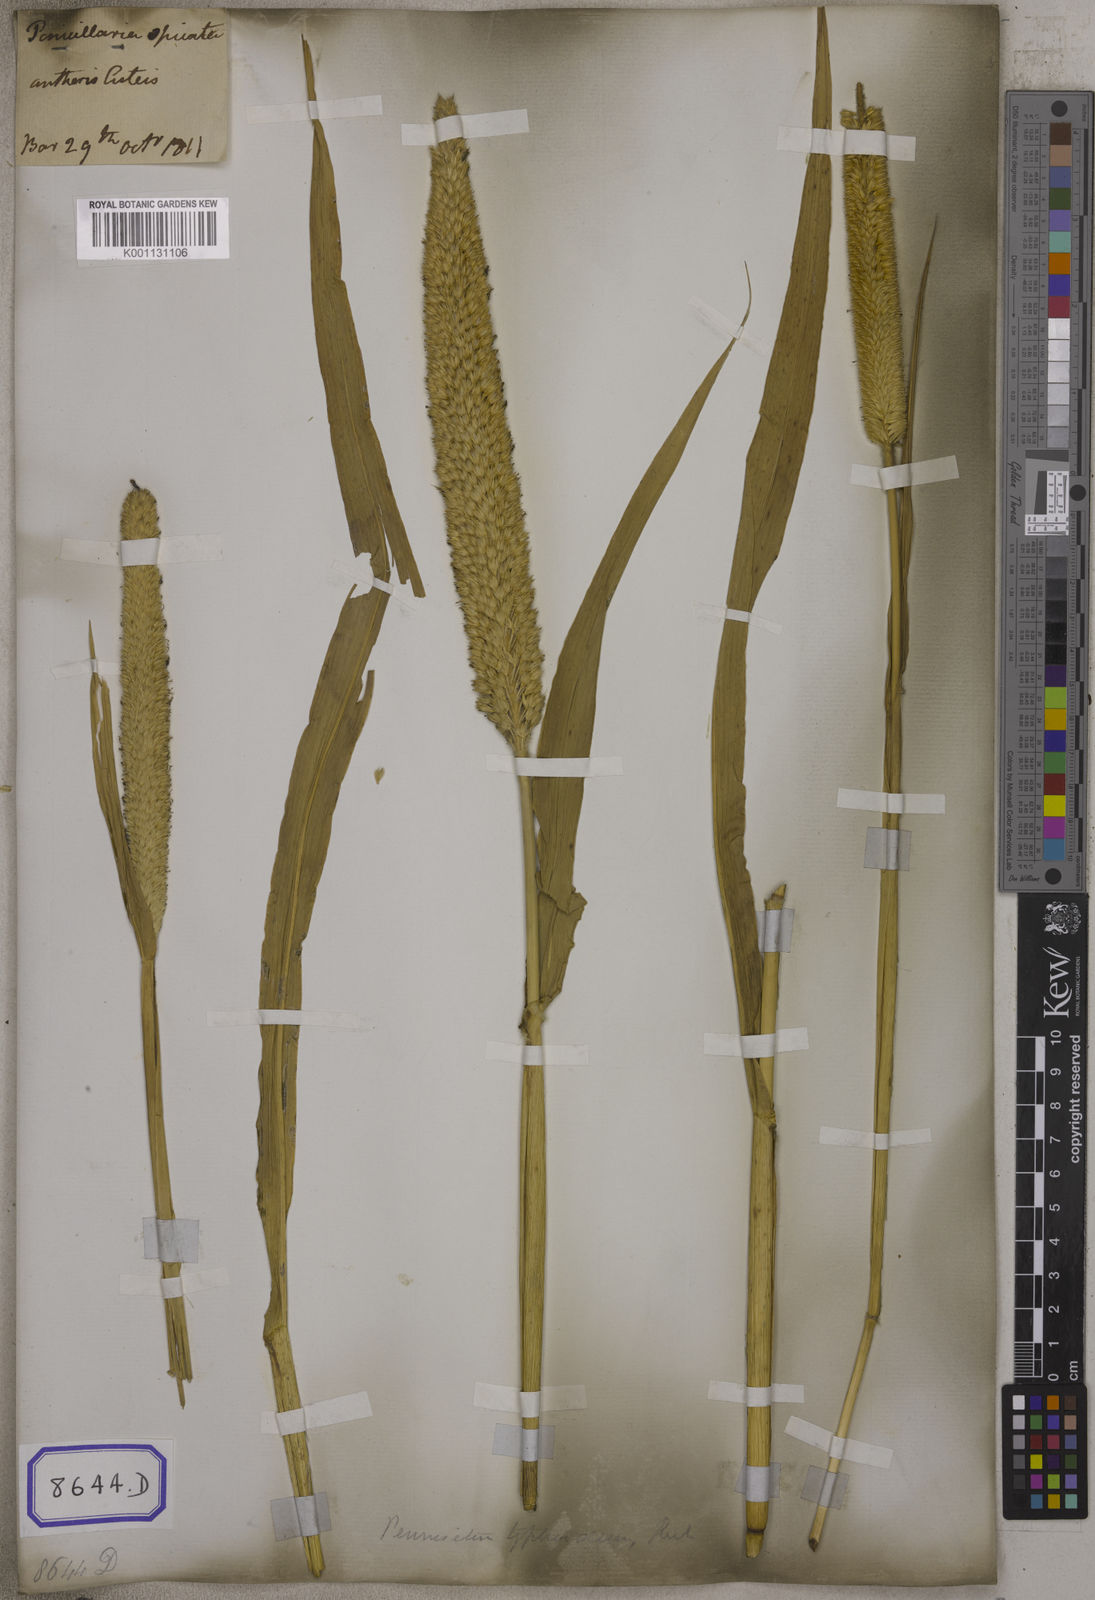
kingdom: Plantae
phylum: Tracheophyta
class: Liliopsida
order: Poales
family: Poaceae
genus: Cenchrus
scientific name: Cenchrus americanus
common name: Pearl millet
